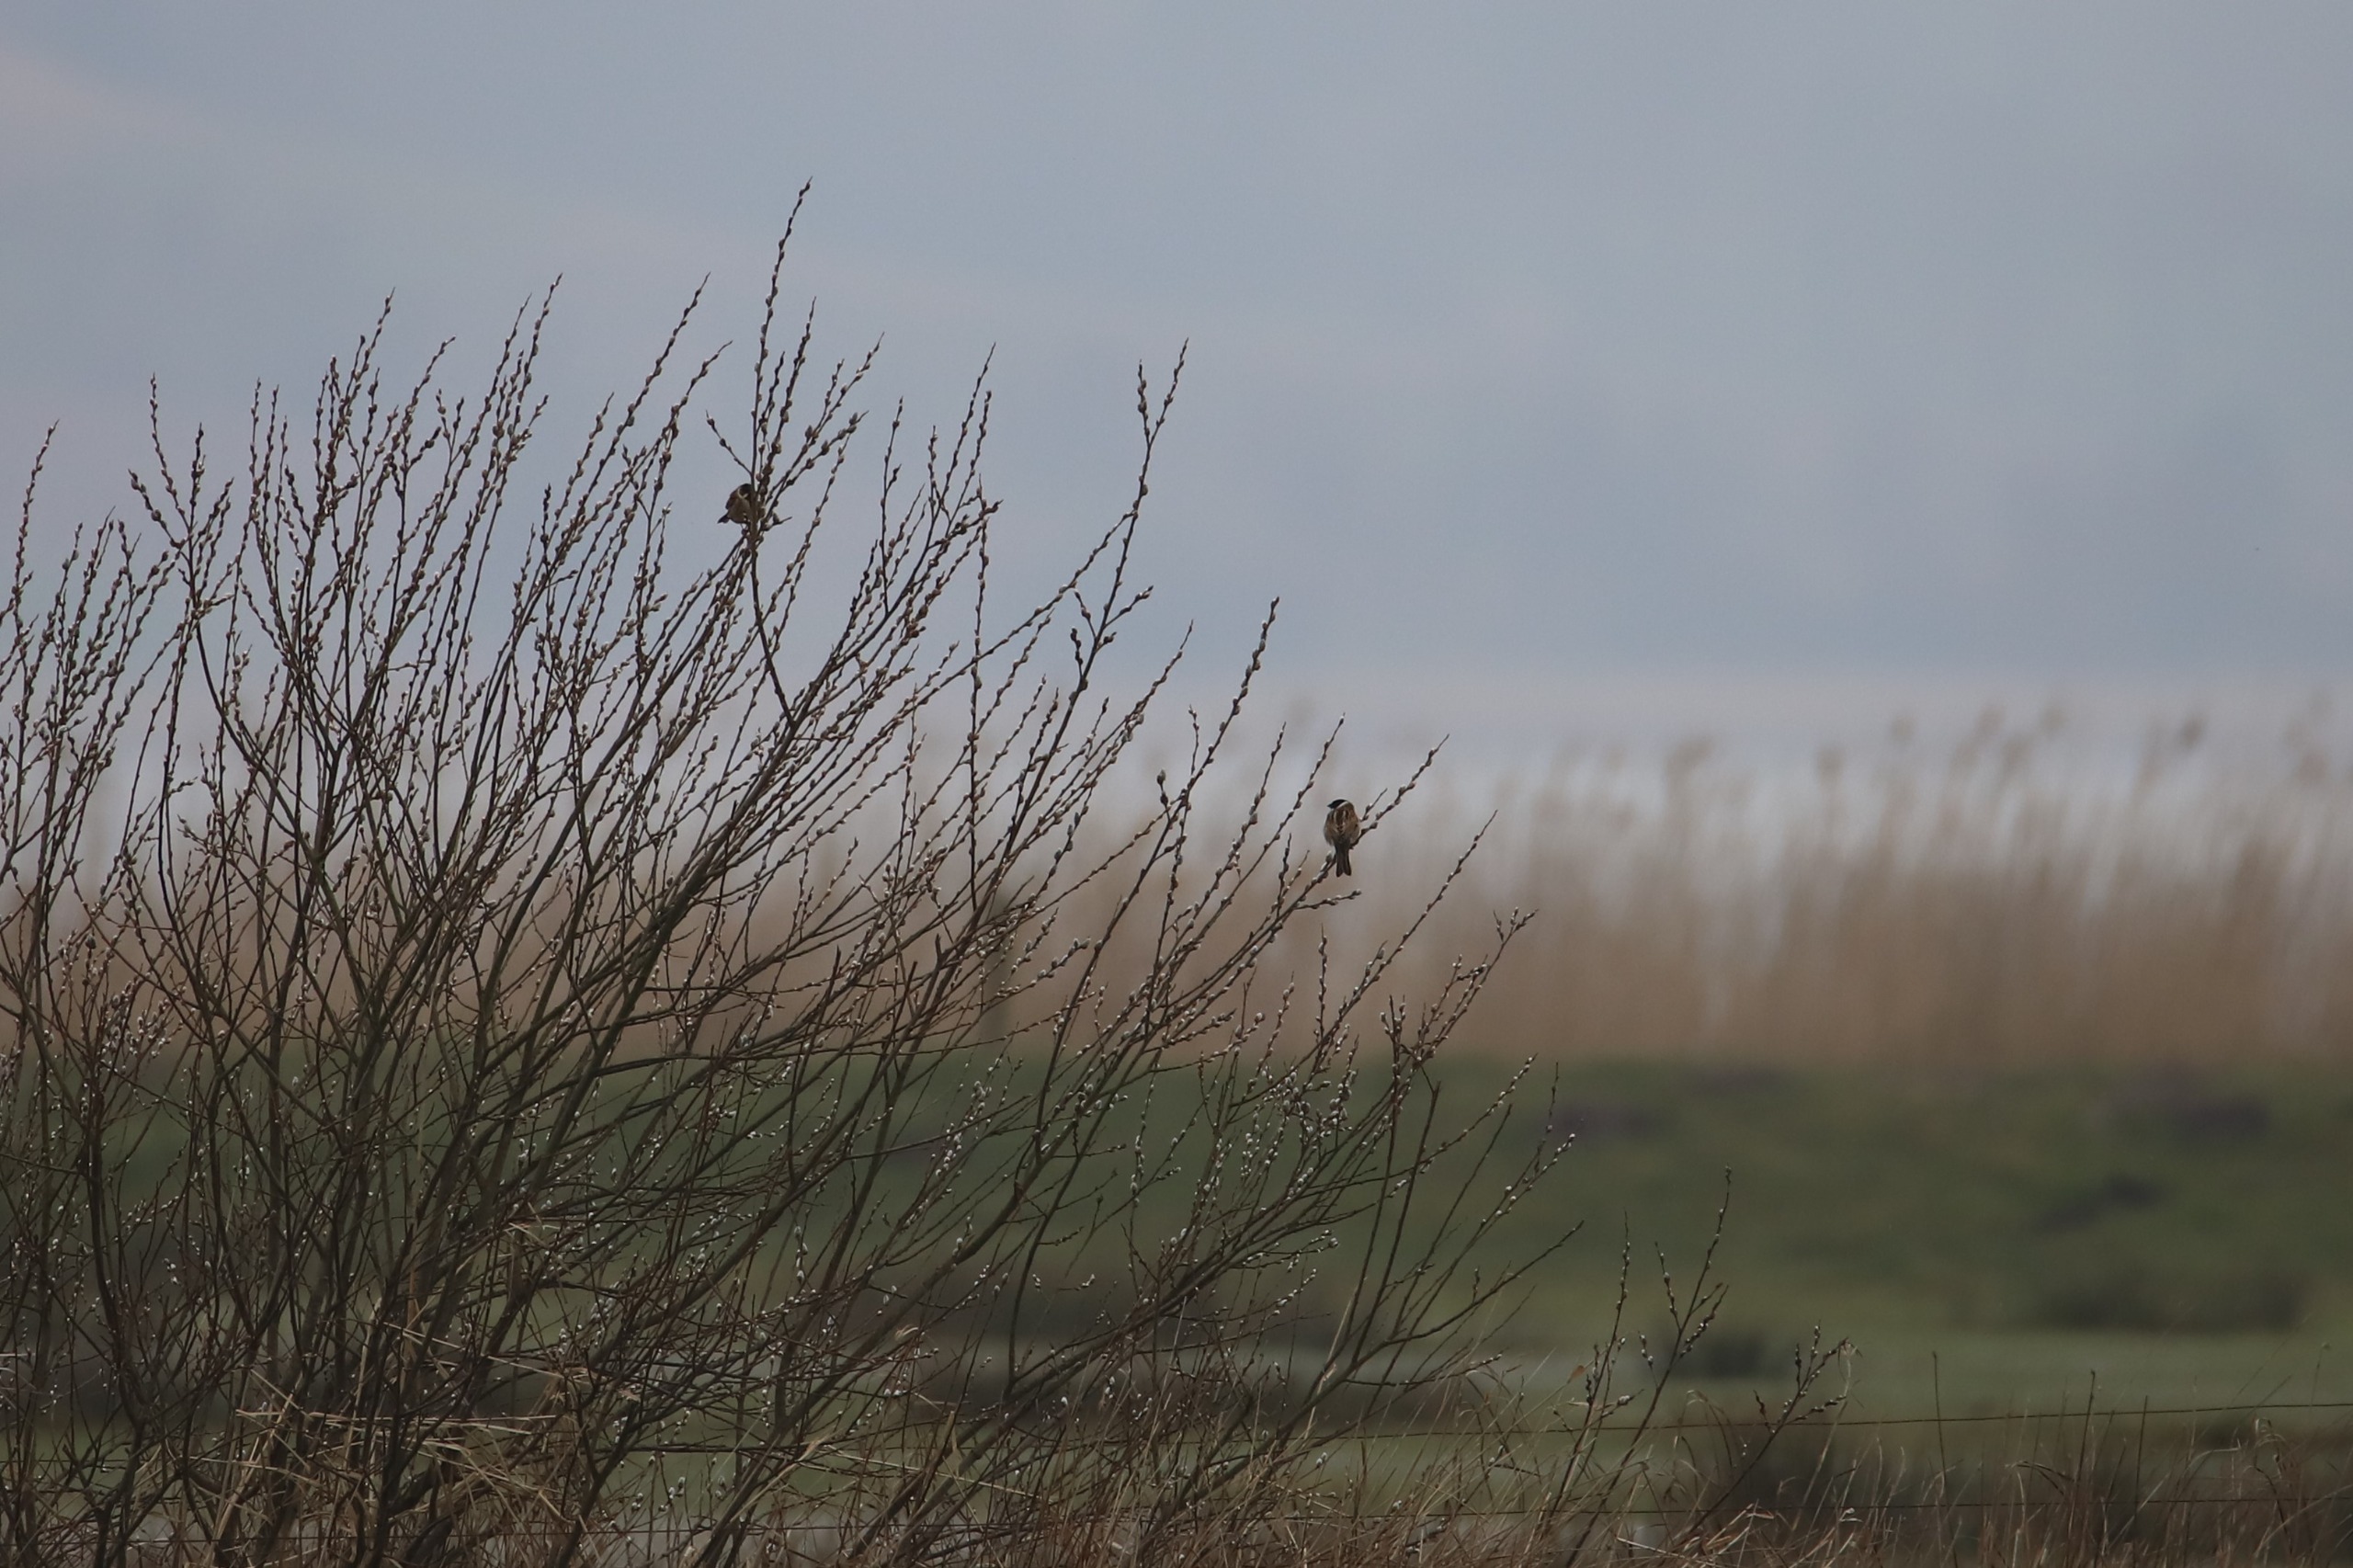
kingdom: Animalia
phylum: Chordata
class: Aves
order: Passeriformes
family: Emberizidae
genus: Emberiza
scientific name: Emberiza schoeniclus
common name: Rørspurv
